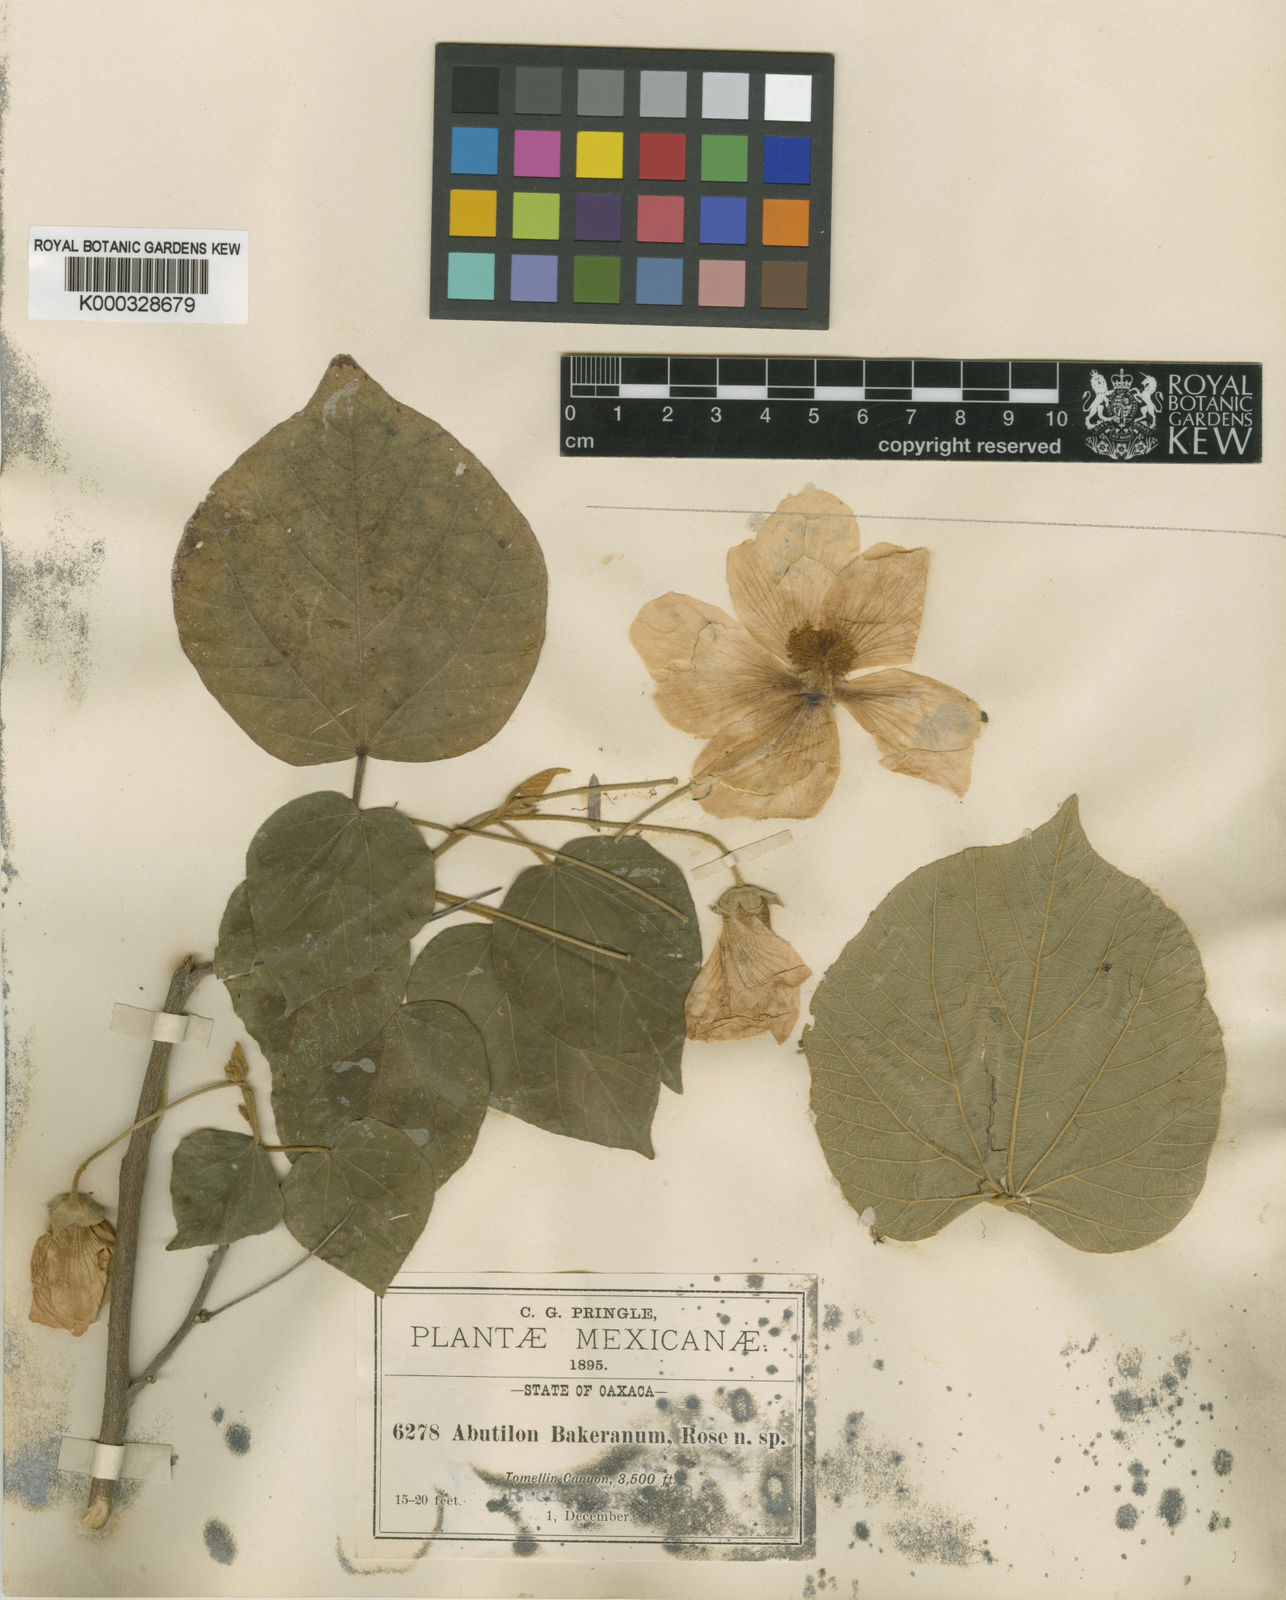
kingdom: Plantae
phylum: Tracheophyta
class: Magnoliopsida
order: Malvales
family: Malvaceae
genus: Bakeridesia
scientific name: Bakeridesia bakeriana
